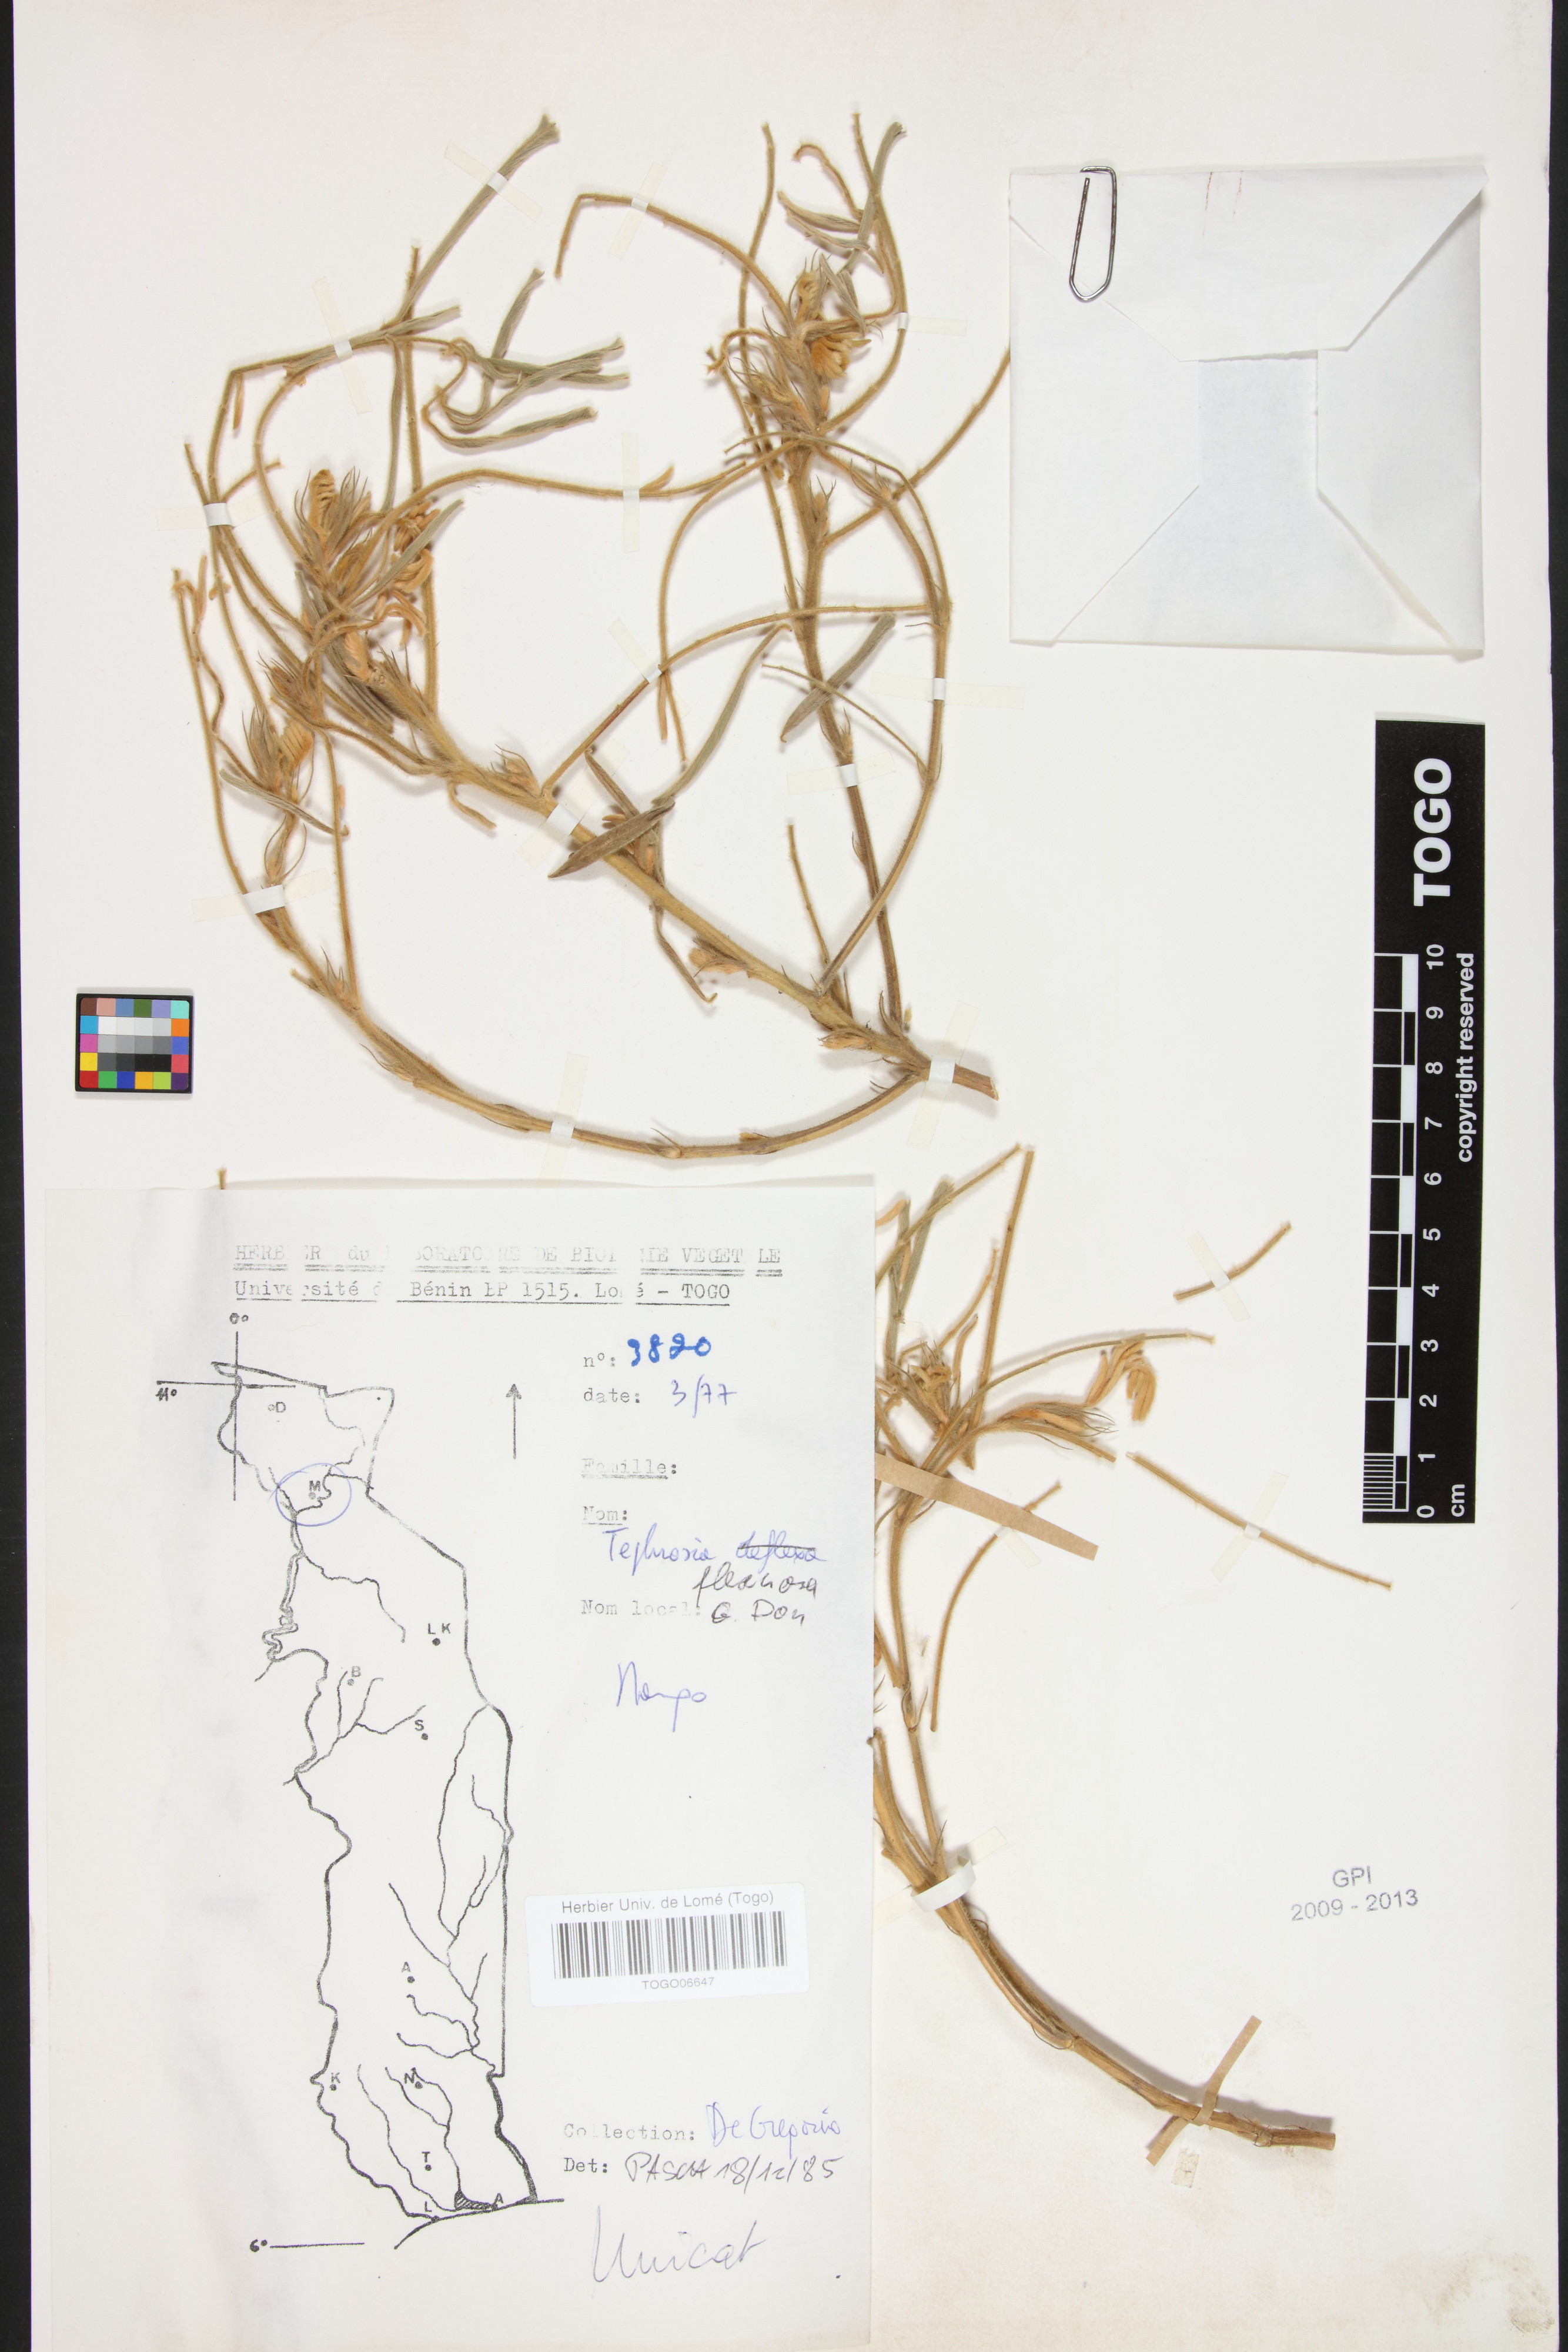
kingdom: Plantae
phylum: Tracheophyta
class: Magnoliopsida
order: Fabales
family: Fabaceae
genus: Tephrosia
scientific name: Tephrosia flexuosa
